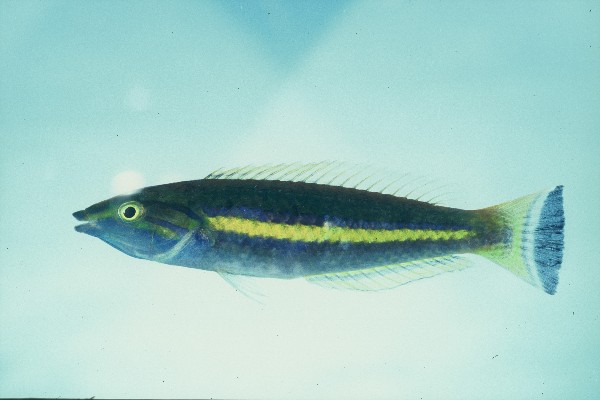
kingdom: Animalia
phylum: Chordata
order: Perciformes
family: Labridae
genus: Pseudojuloides
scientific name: Pseudojuloides cerasinus
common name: Smalltail wrasse
